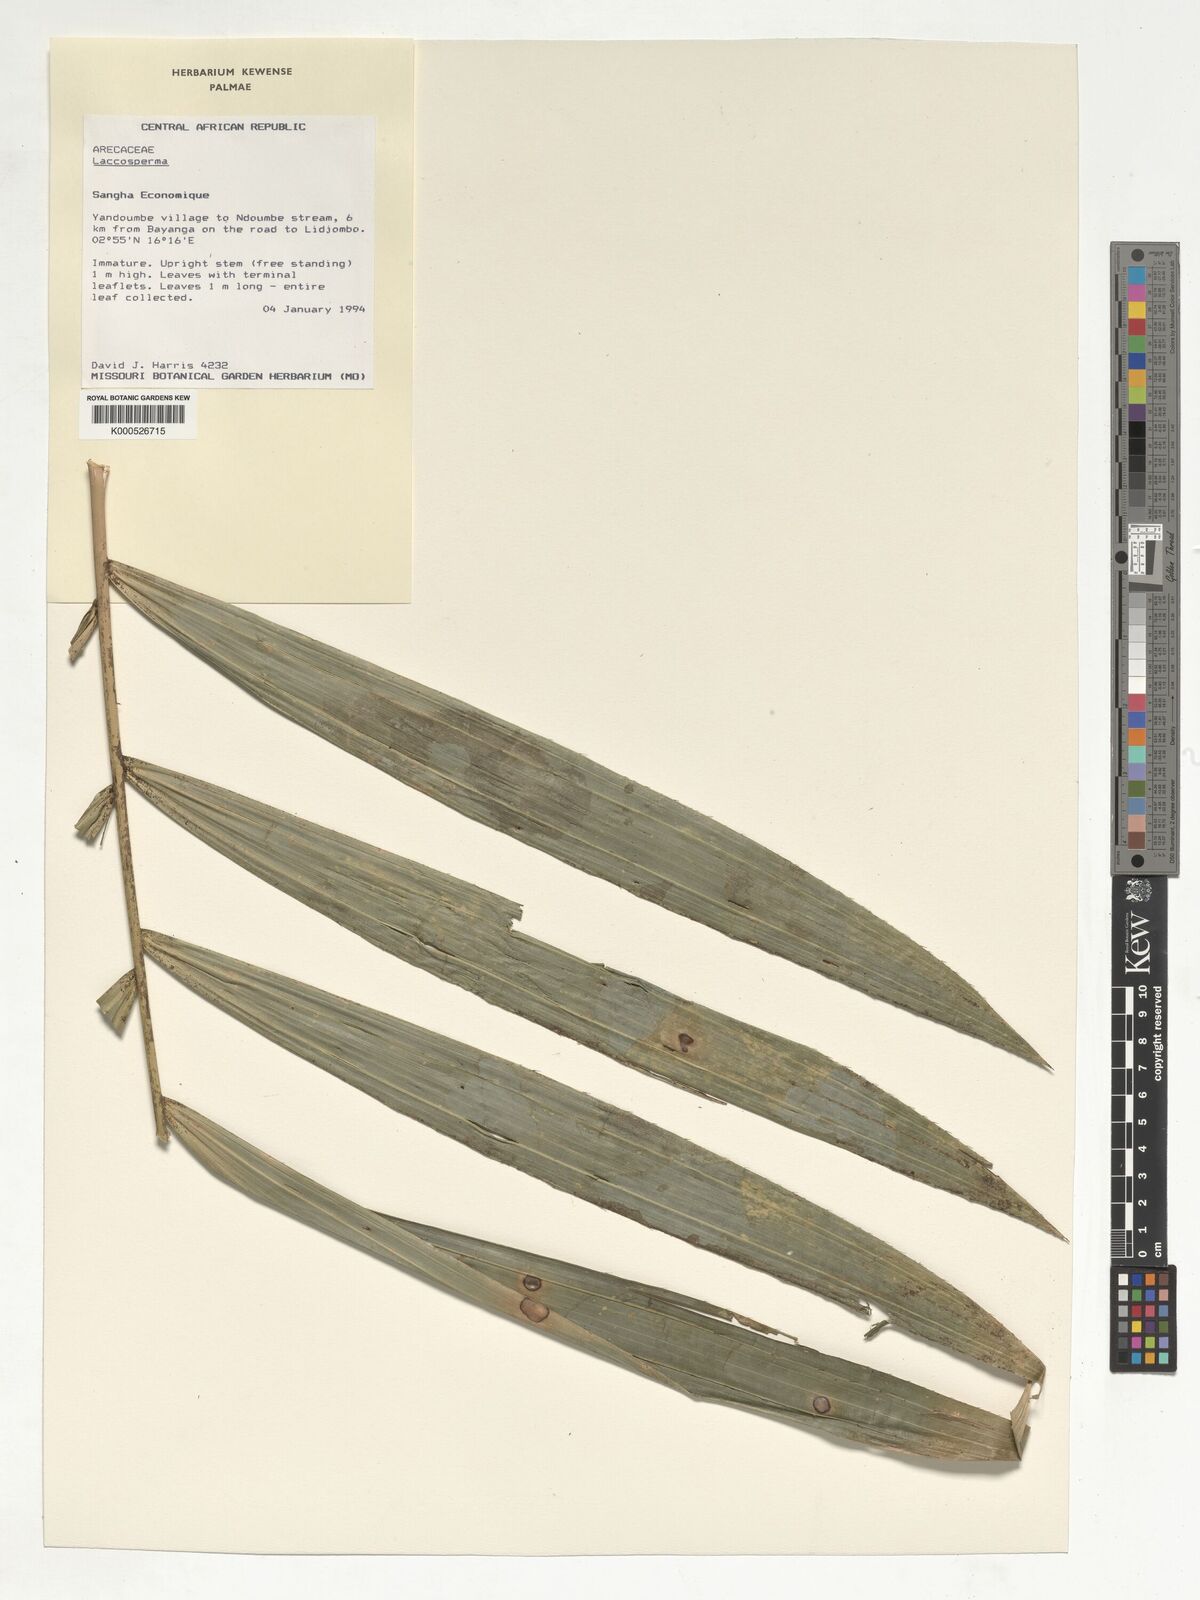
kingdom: Plantae
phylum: Tracheophyta
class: Liliopsida
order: Arecales
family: Arecaceae
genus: Laccosperma
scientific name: Laccosperma
